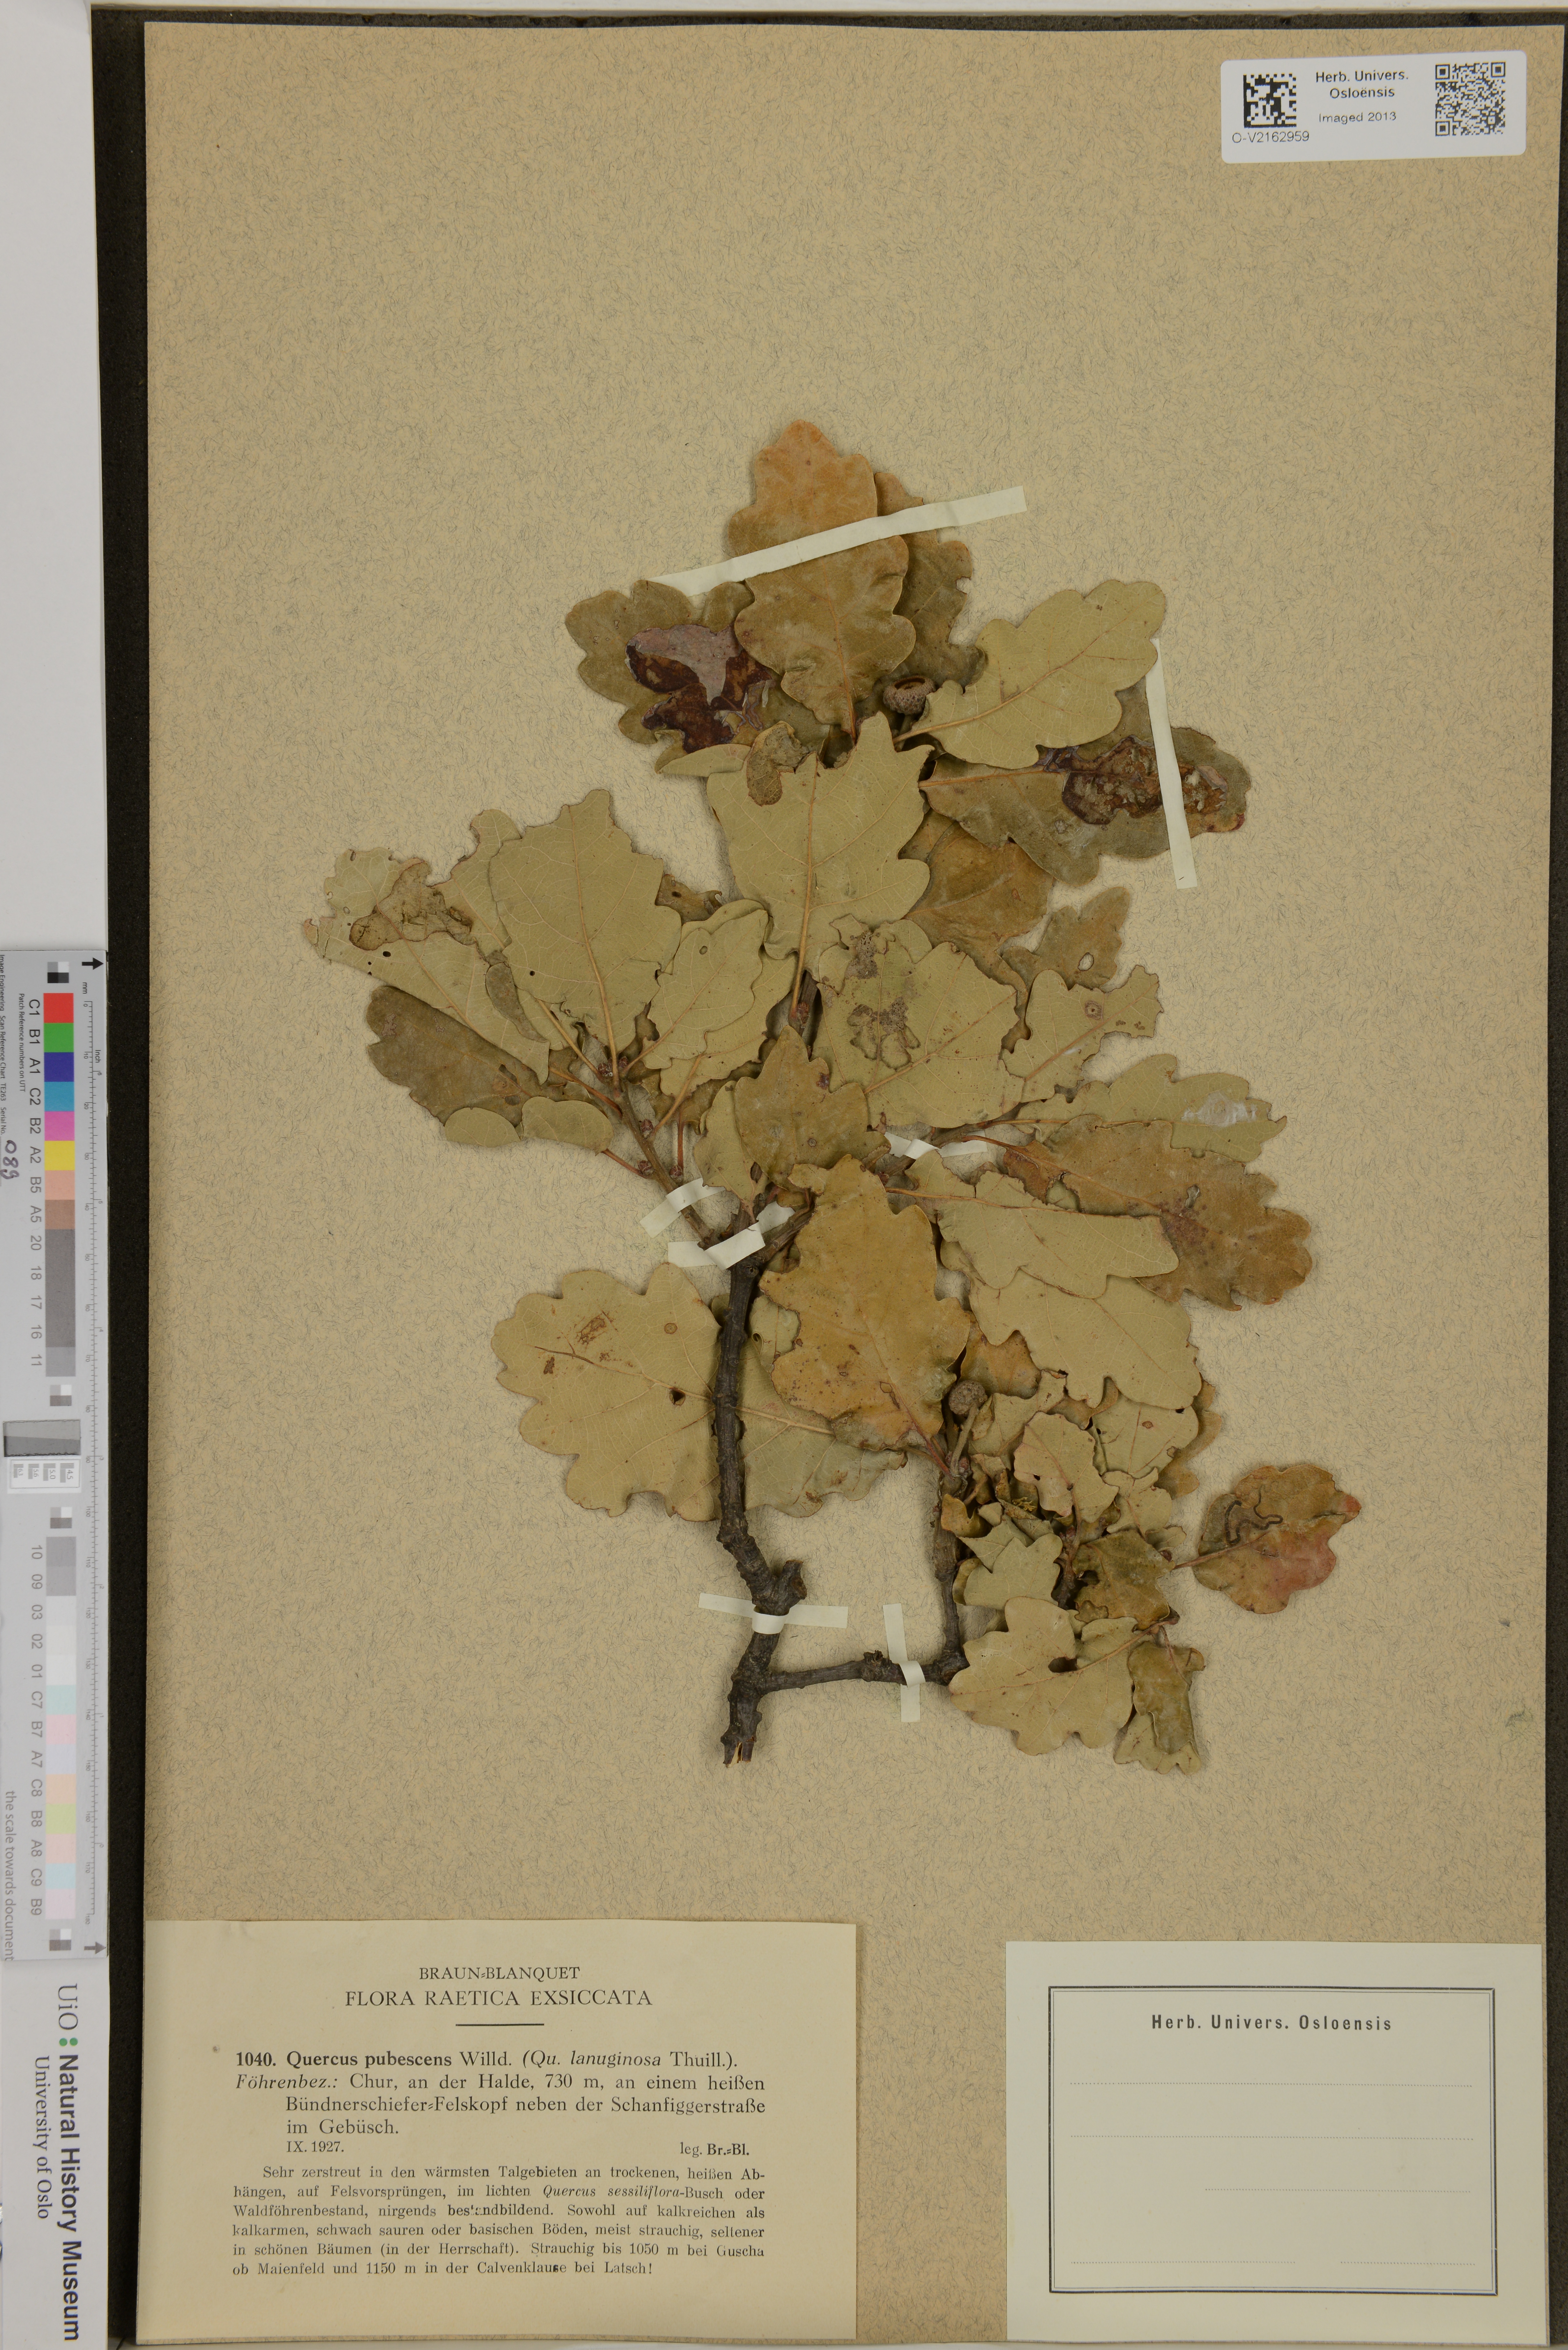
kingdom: Plantae
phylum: Tracheophyta
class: Magnoliopsida
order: Fagales
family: Fagaceae
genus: Quercus
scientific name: Quercus pubescens
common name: Downy oak
